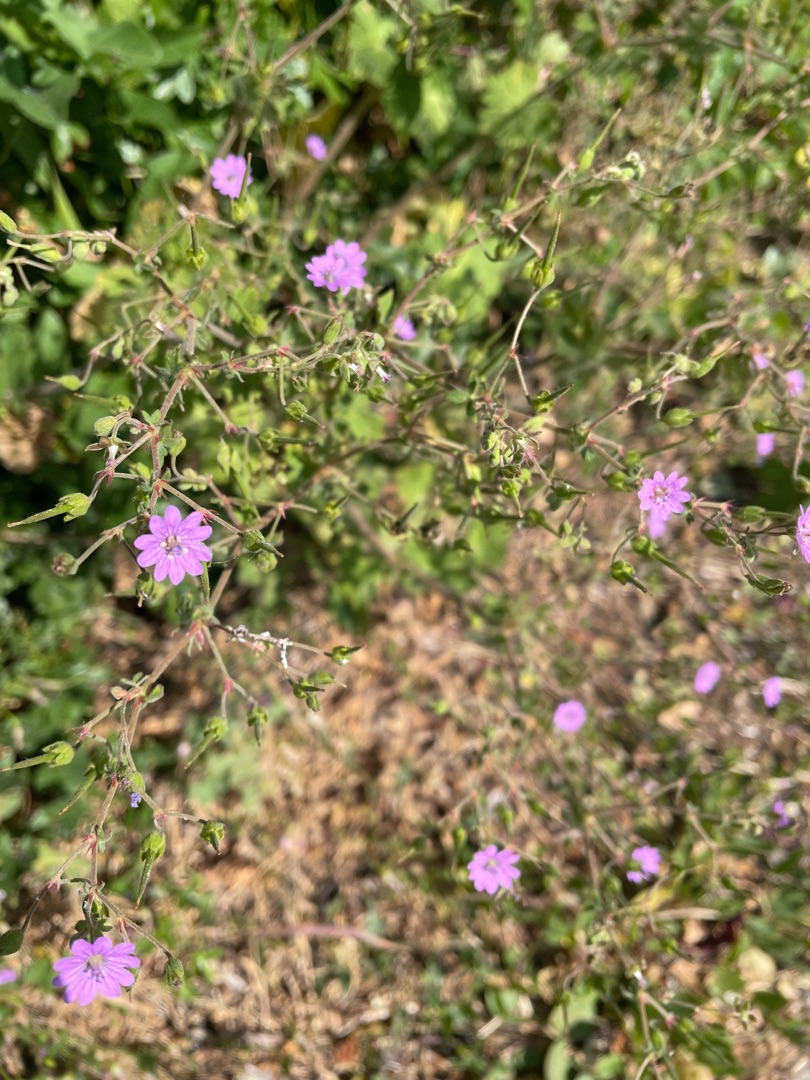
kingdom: Plantae
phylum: Tracheophyta
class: Magnoliopsida
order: Geraniales
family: Geraniaceae
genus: Geranium
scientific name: Geranium pyrenaicum
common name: Pyrenæisk storkenæb
